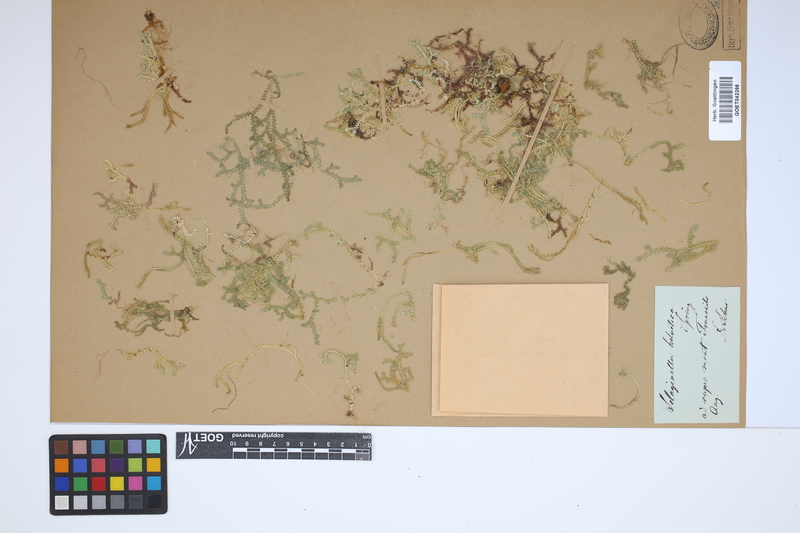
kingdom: Plantae
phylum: Tracheophyta
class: Lycopodiopsida
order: Selaginellales
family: Selaginellaceae
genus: Selaginella
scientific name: Selaginella helvetica
